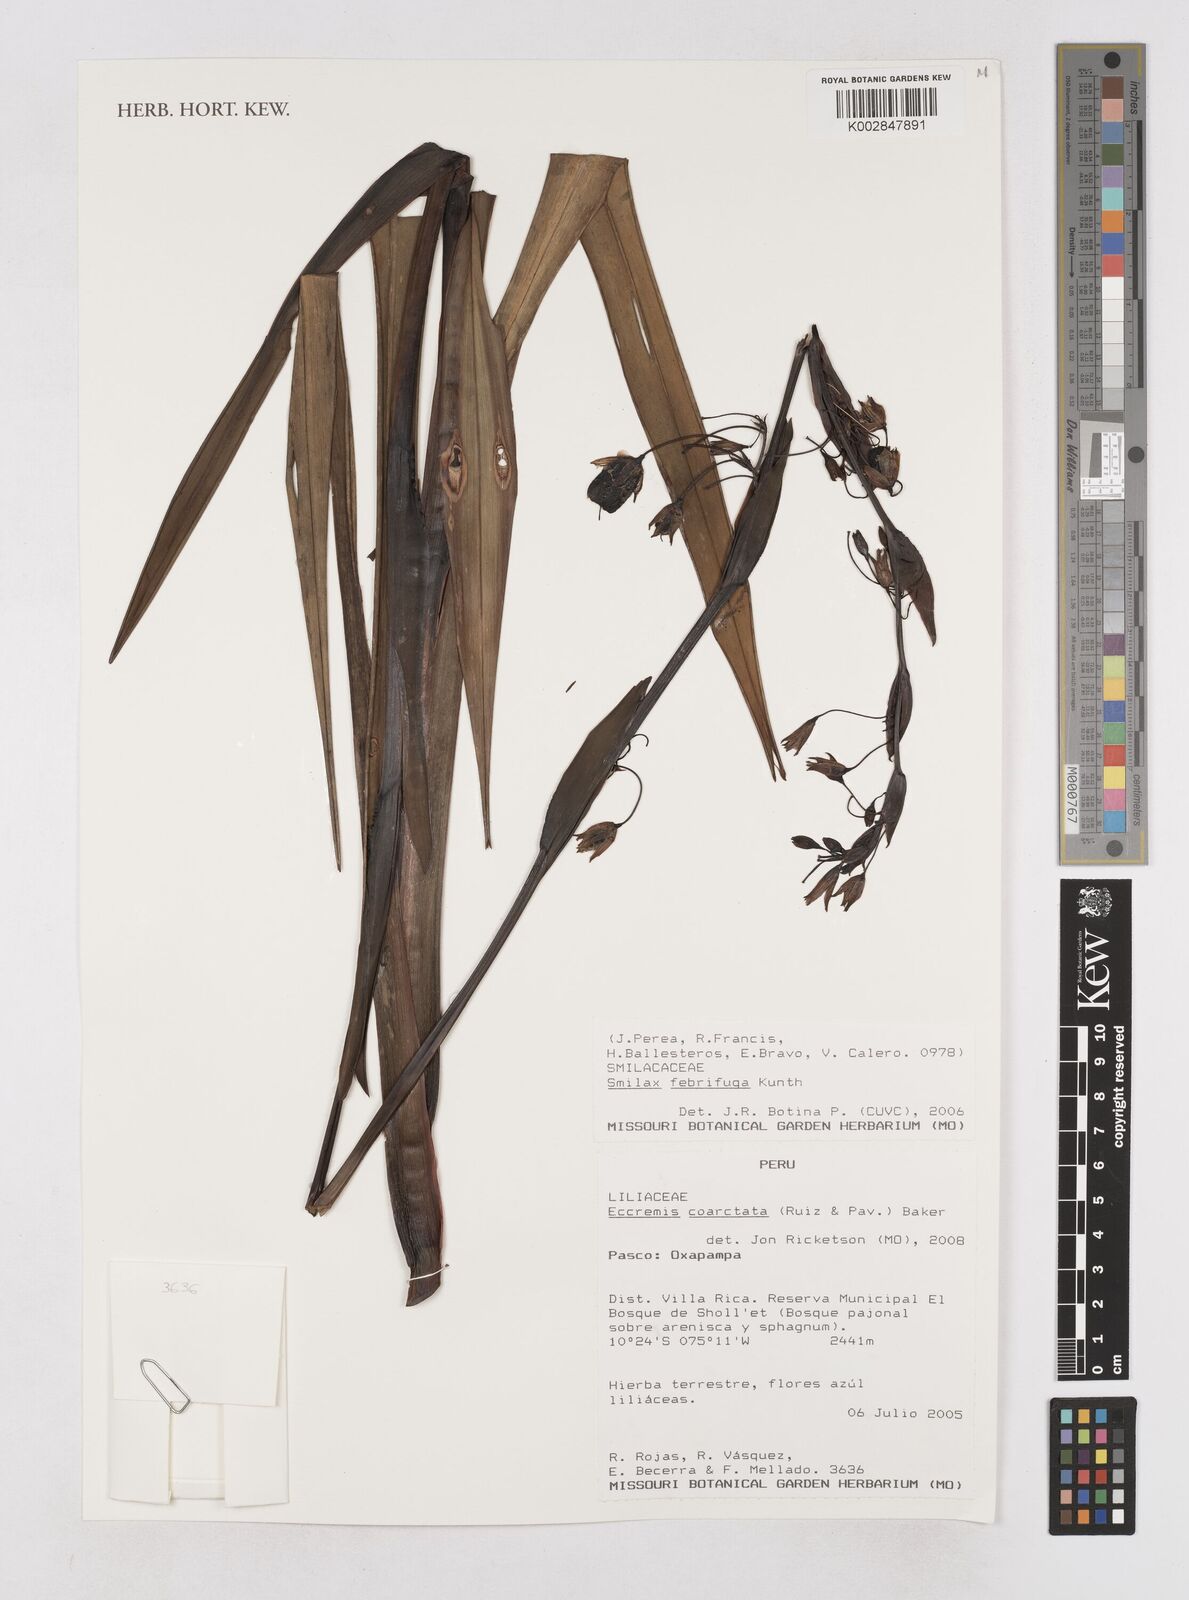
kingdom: Plantae
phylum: Tracheophyta
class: Liliopsida
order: Asparagales
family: Asphodelaceae
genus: Excremis
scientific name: Excremis coarctata
